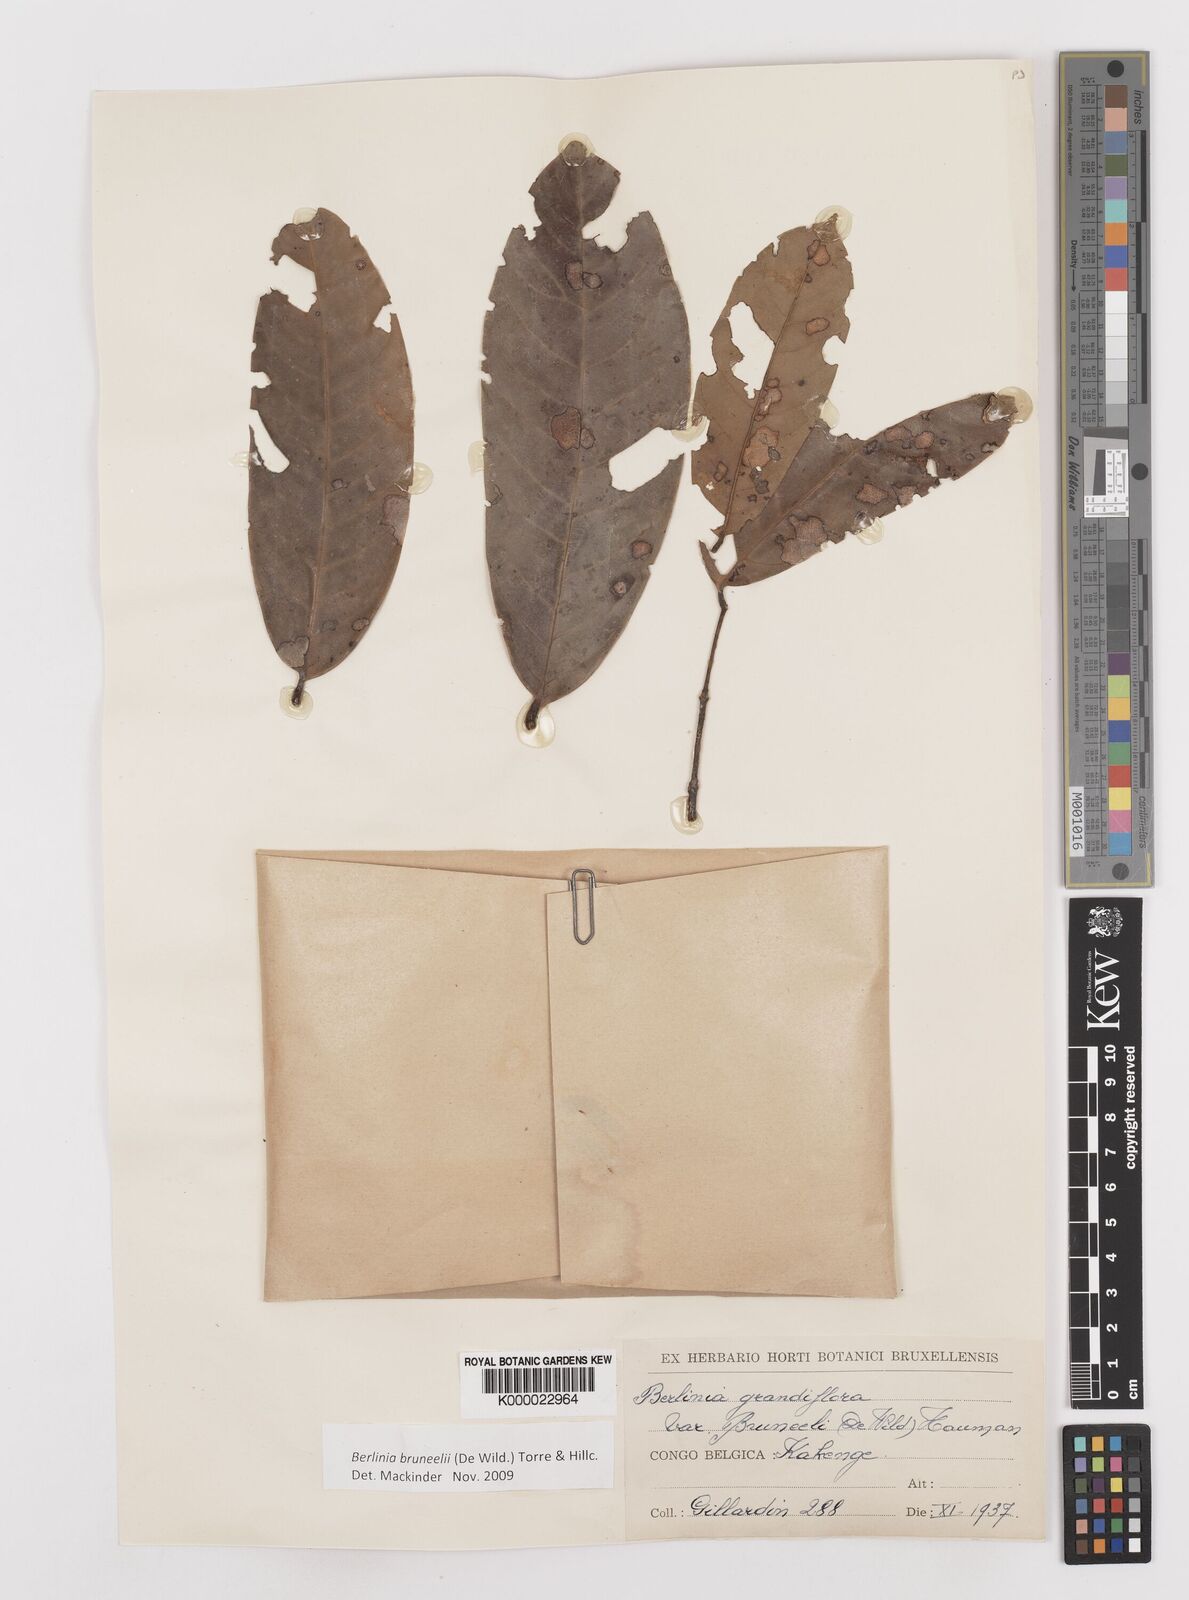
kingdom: Plantae
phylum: Tracheophyta
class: Magnoliopsida
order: Fabales
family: Fabaceae
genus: Berlinia
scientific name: Berlinia bruneelii
